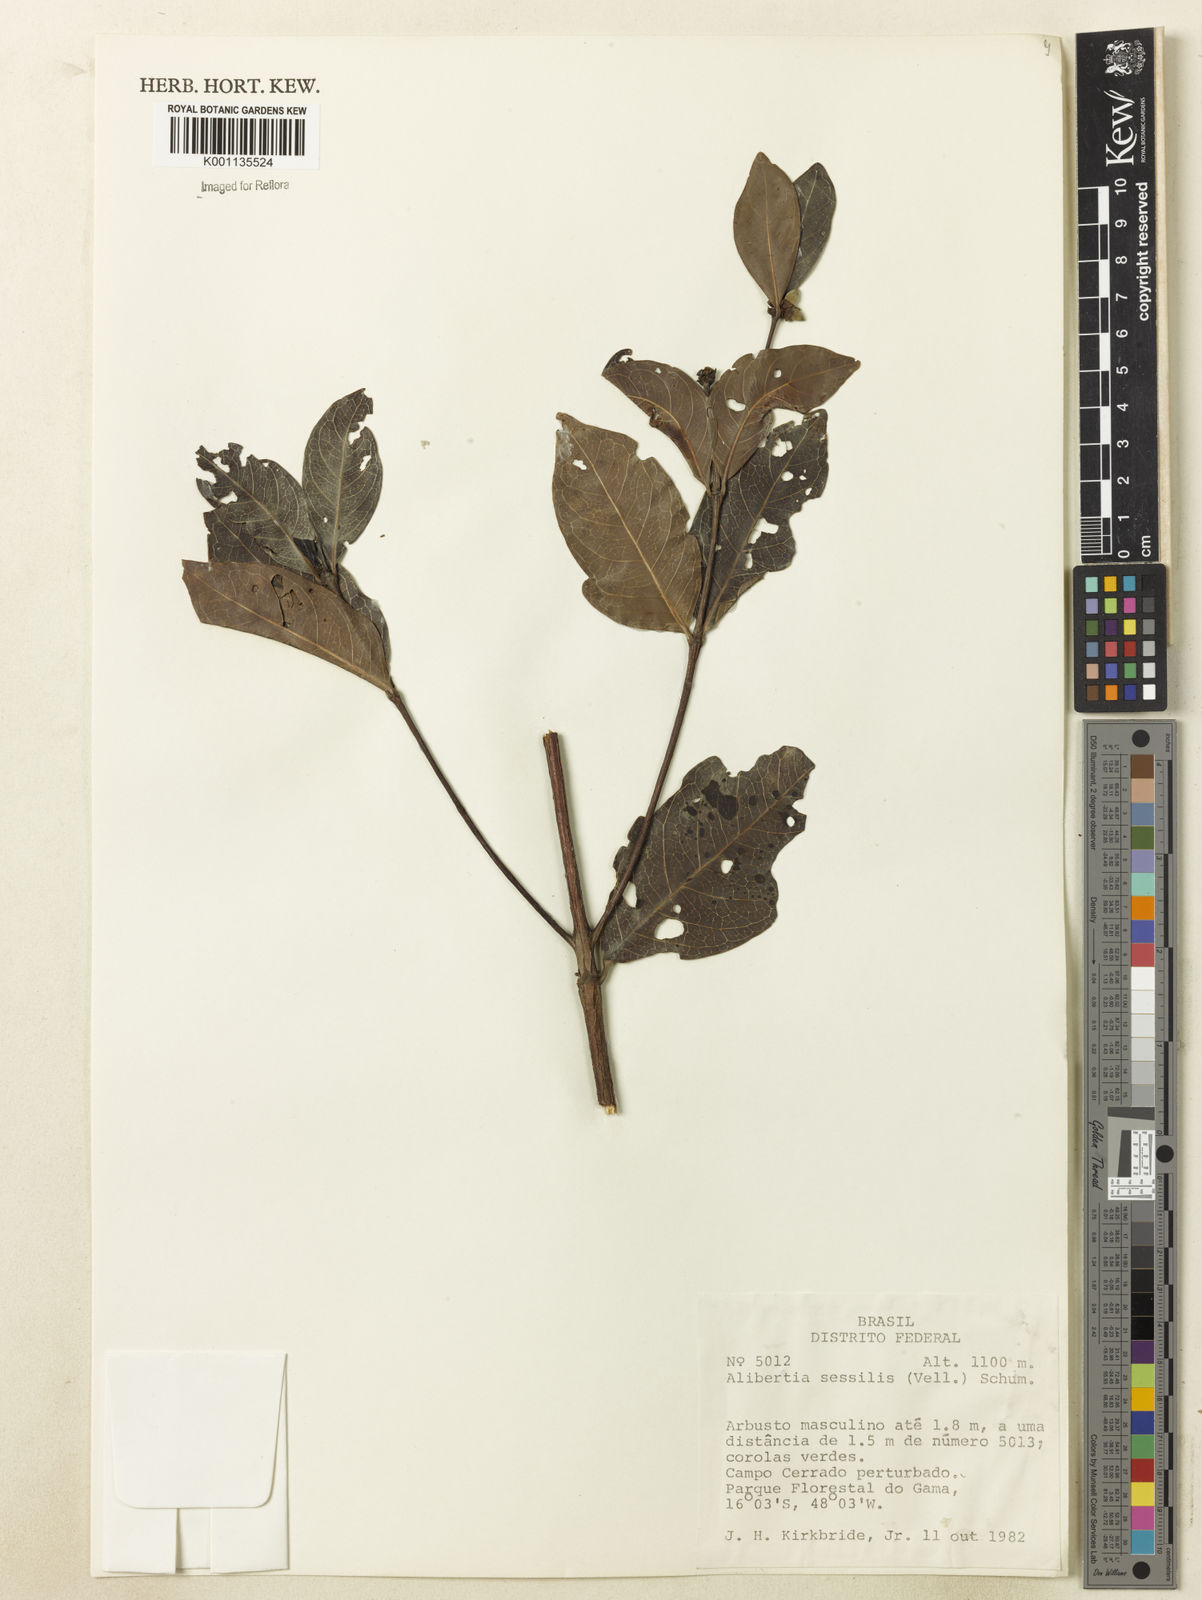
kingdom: Plantae
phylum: Tracheophyta
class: Magnoliopsida
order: Gentianales
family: Rubiaceae
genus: Cordiera
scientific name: Cordiera sessilis
